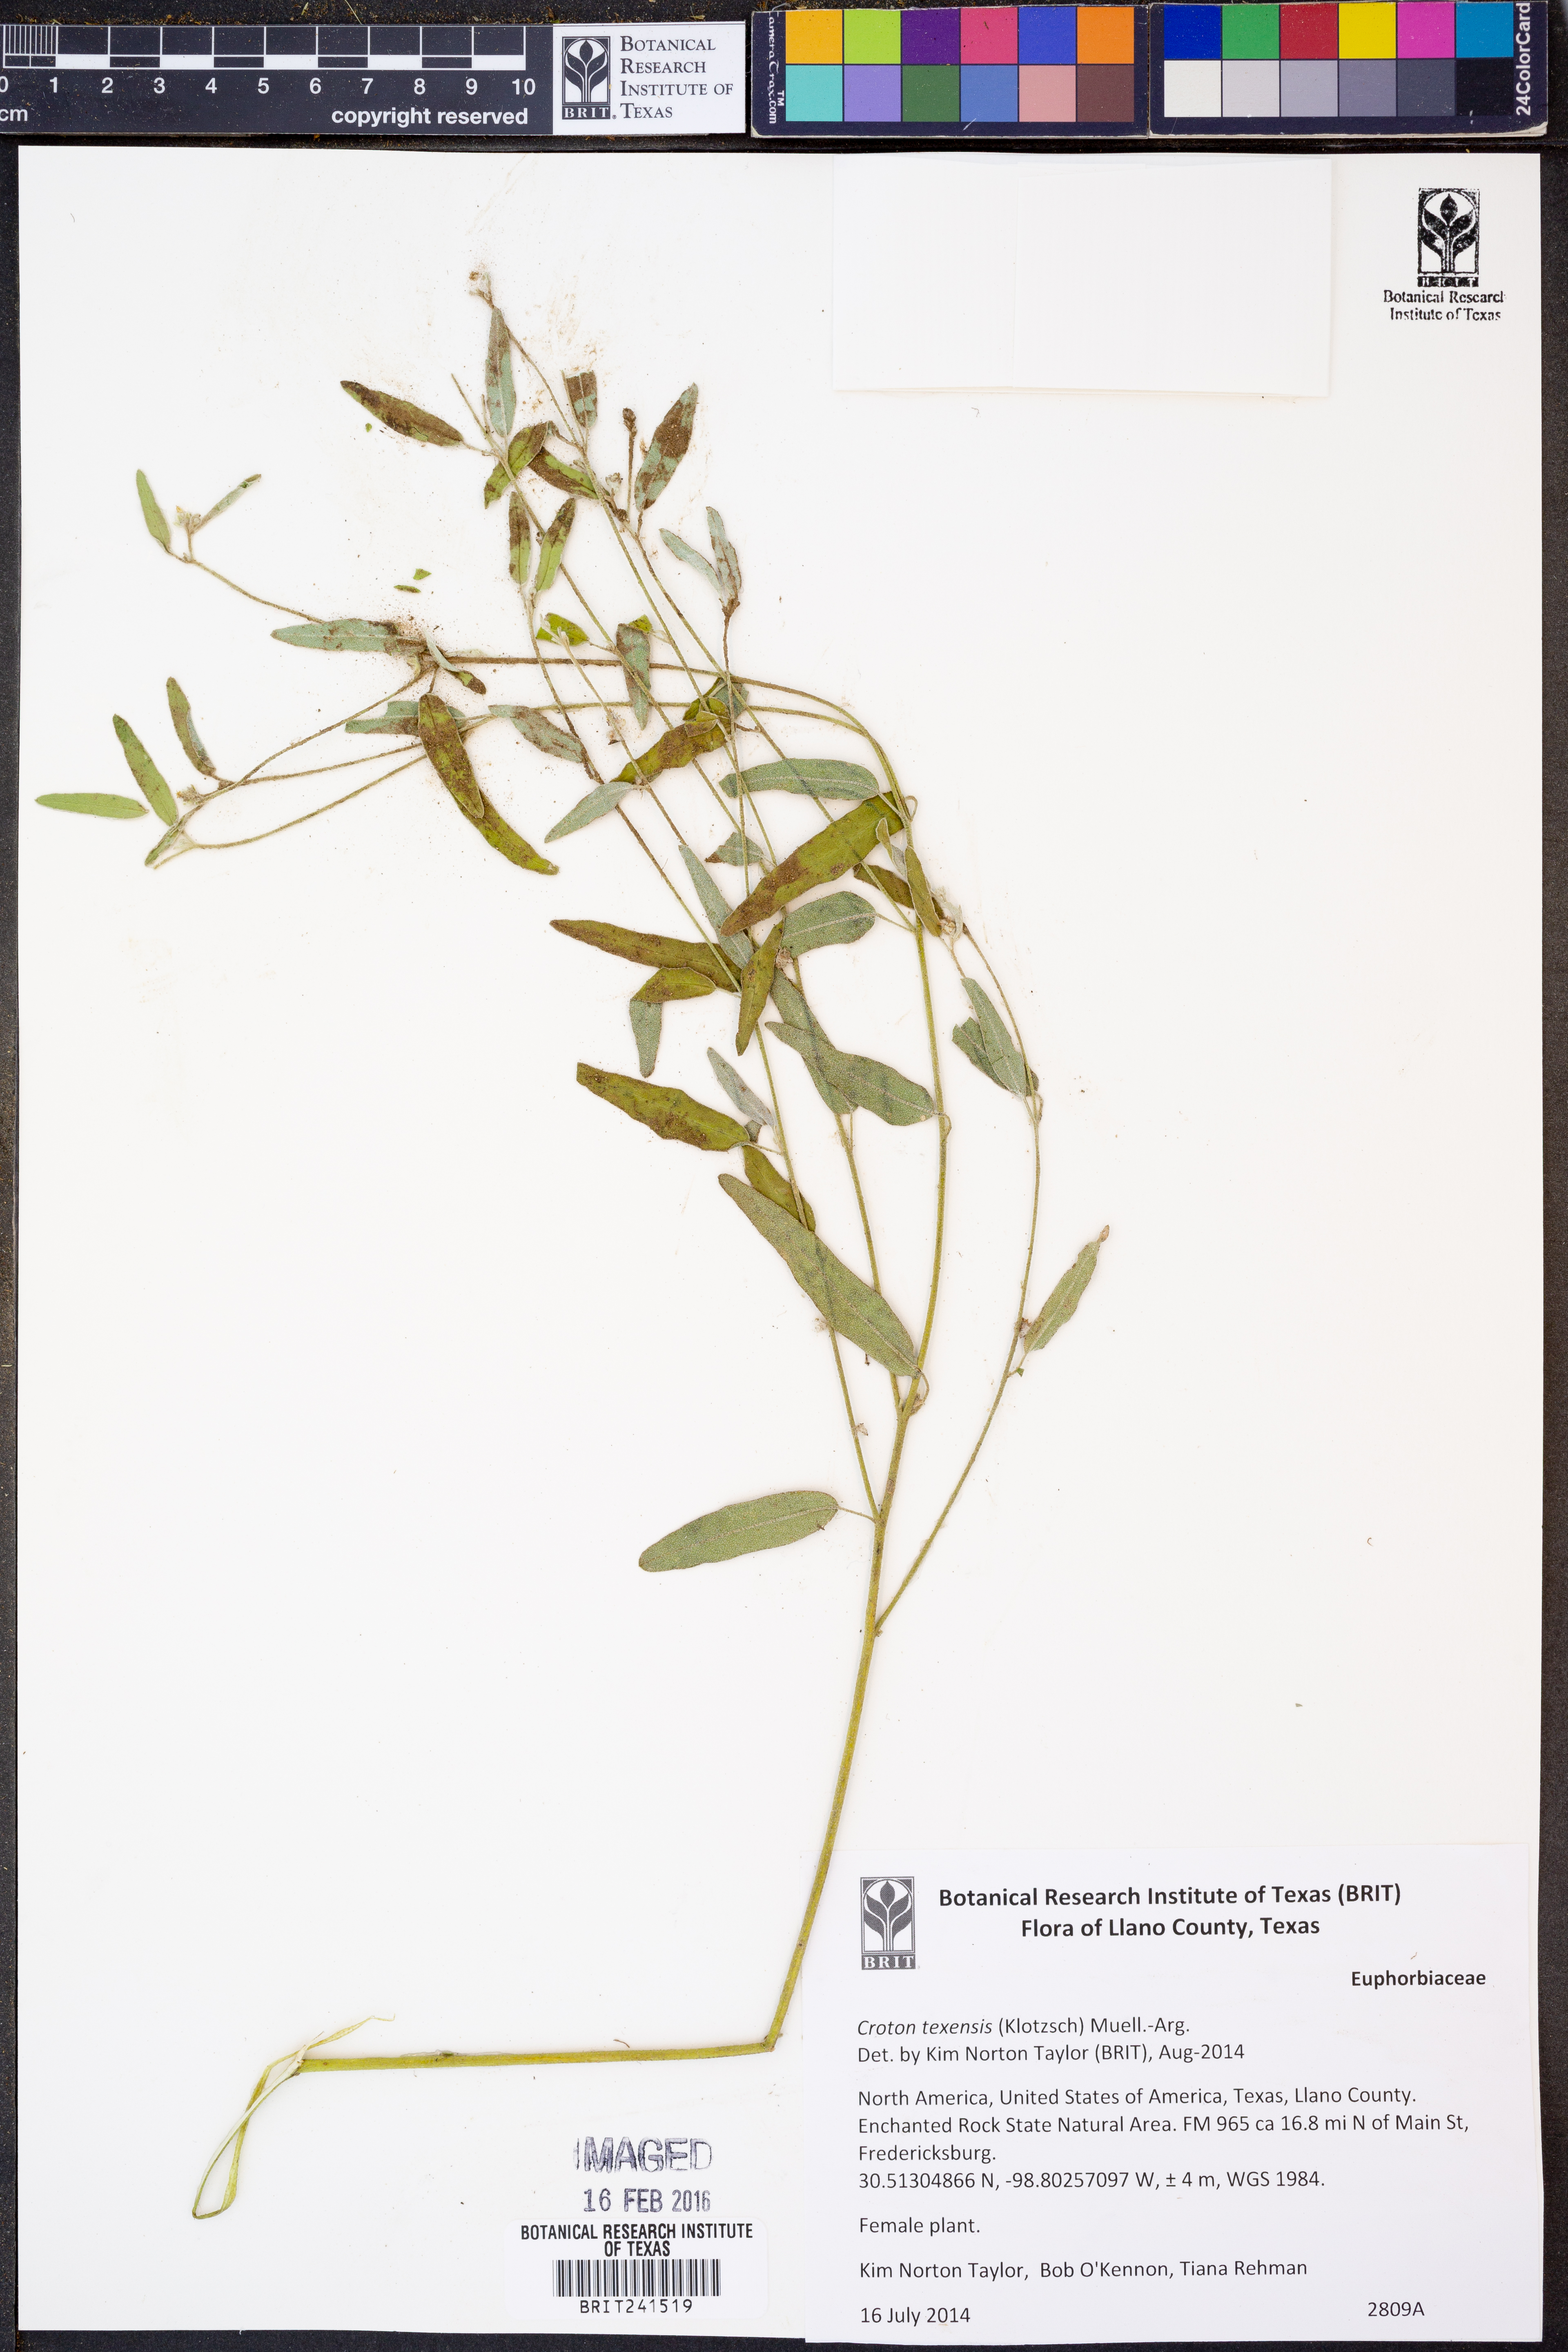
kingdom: Plantae
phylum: Tracheophyta
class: Magnoliopsida
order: Malpighiales
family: Euphorbiaceae
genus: Croton
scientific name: Croton texensis
